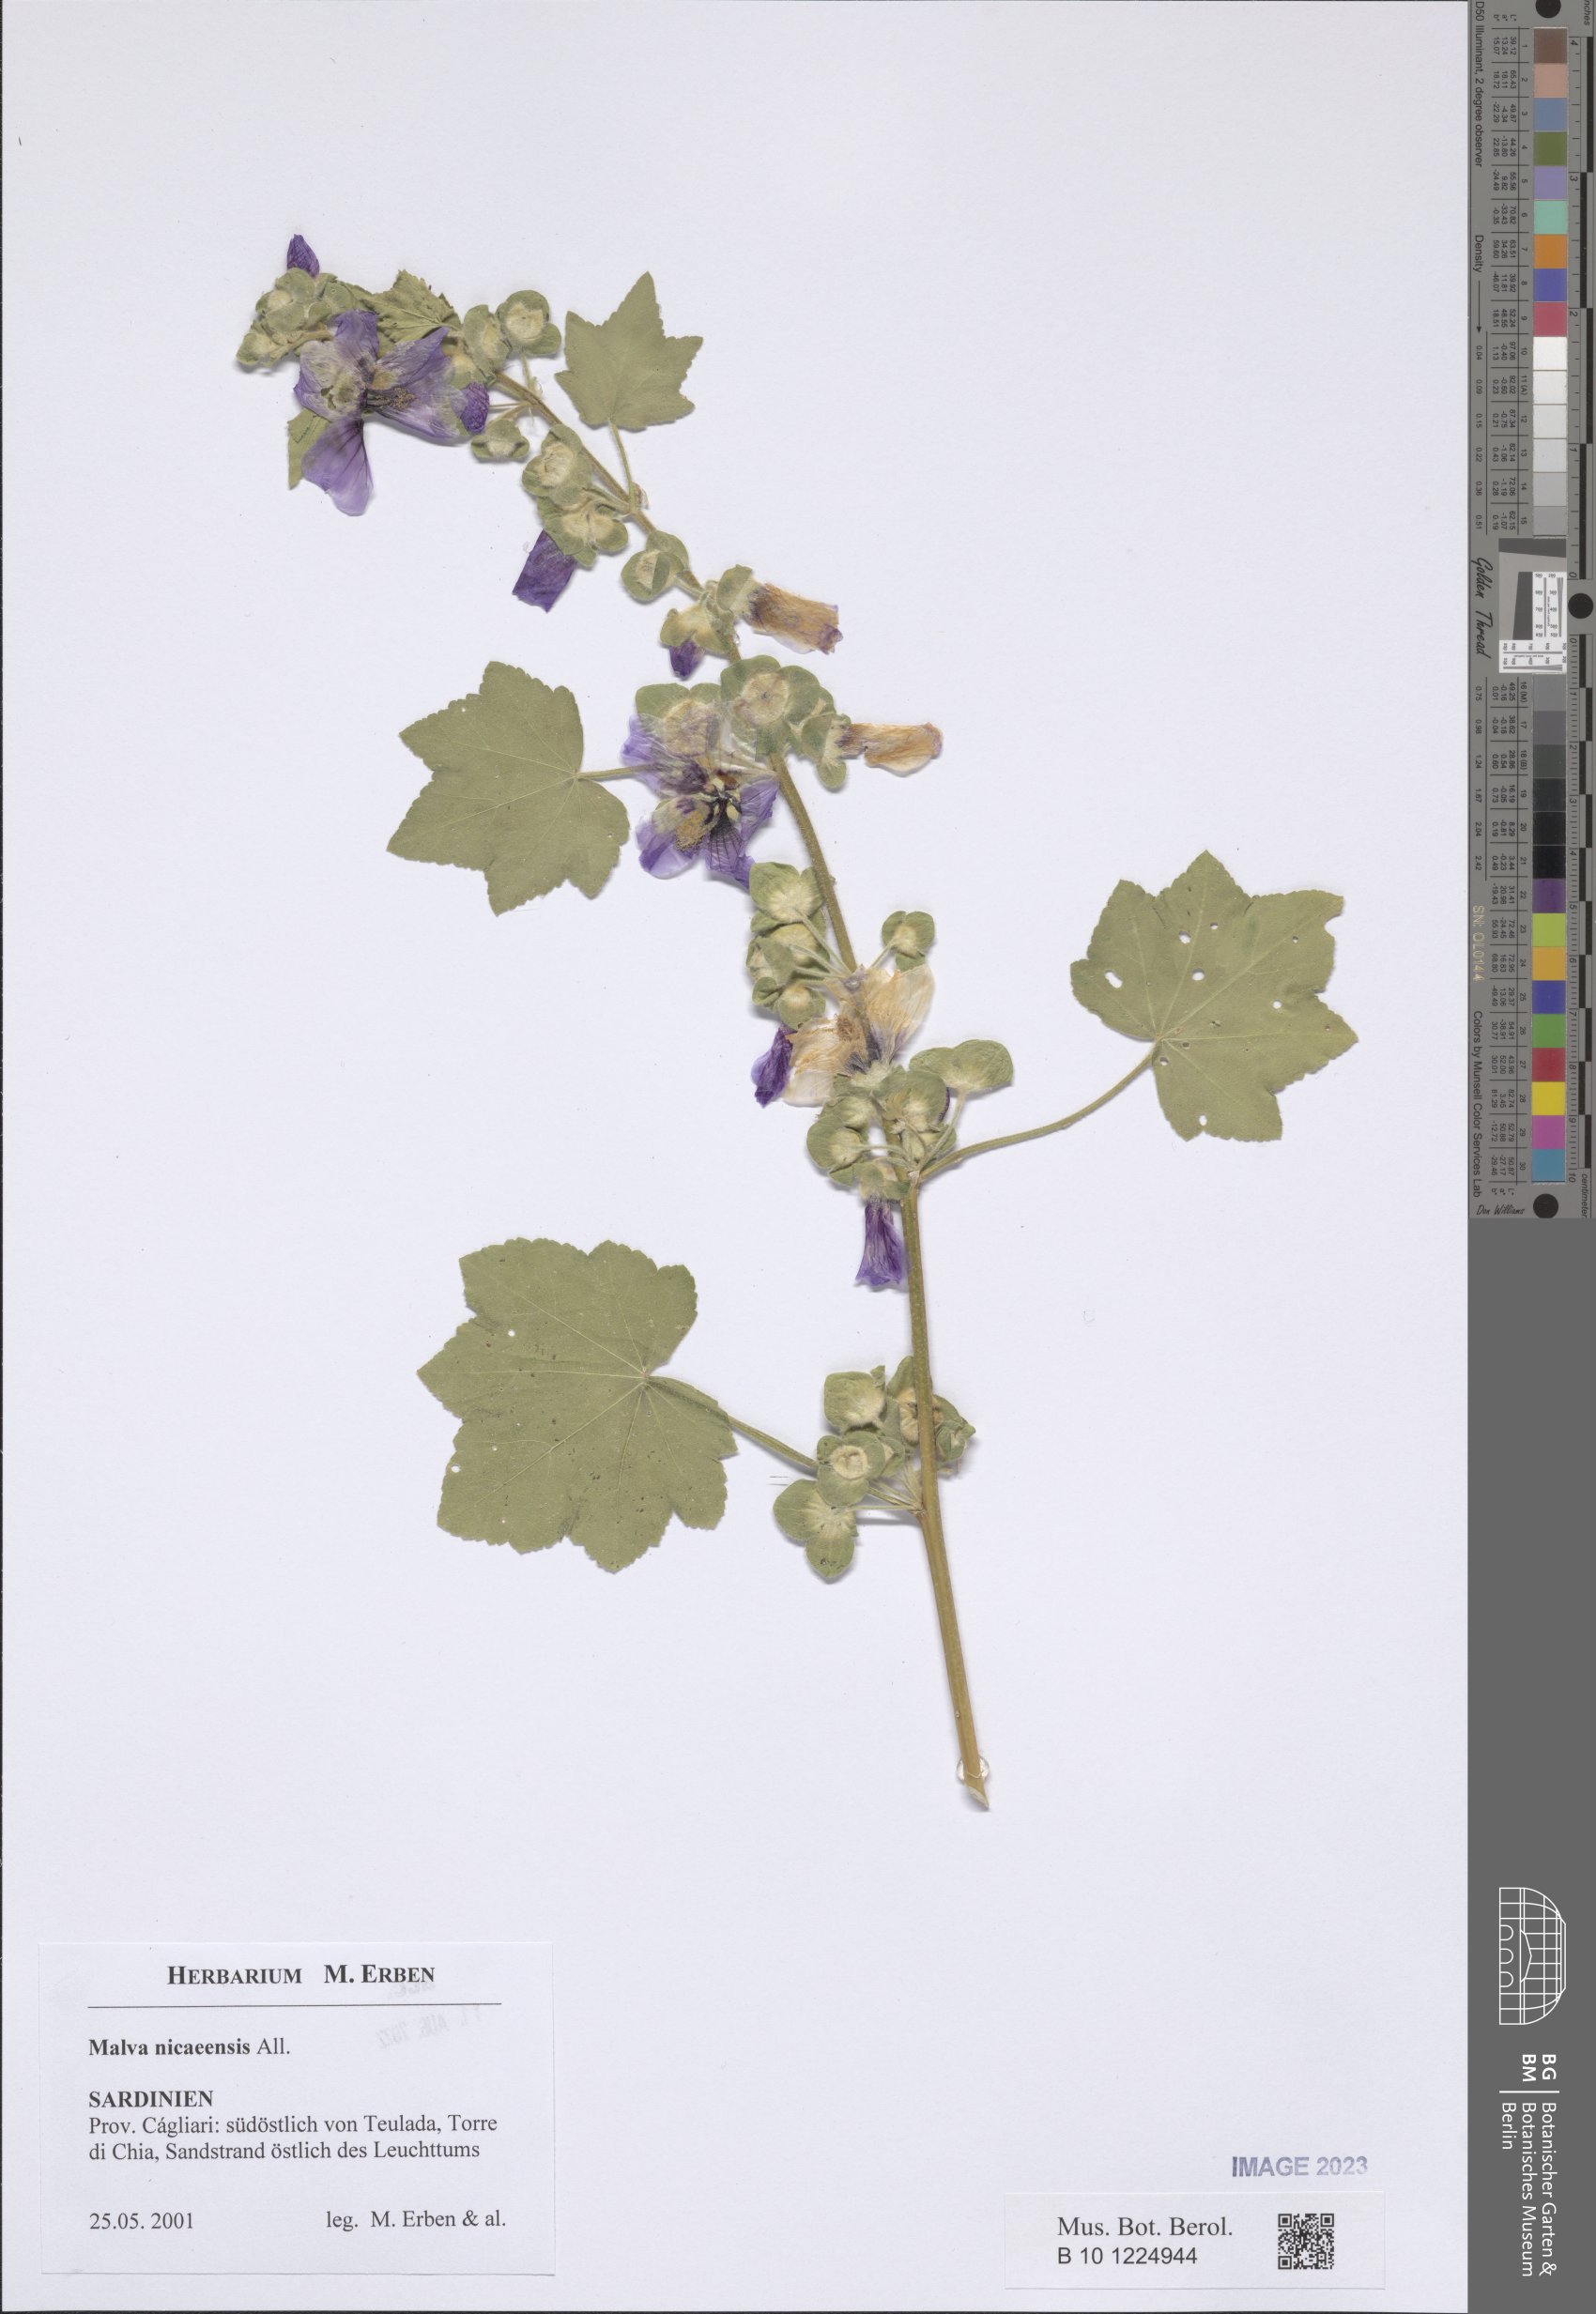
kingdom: Plantae
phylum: Tracheophyta
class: Magnoliopsida
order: Malvales
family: Malvaceae
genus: Malva
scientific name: Malva nicaeensis
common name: French mallow
